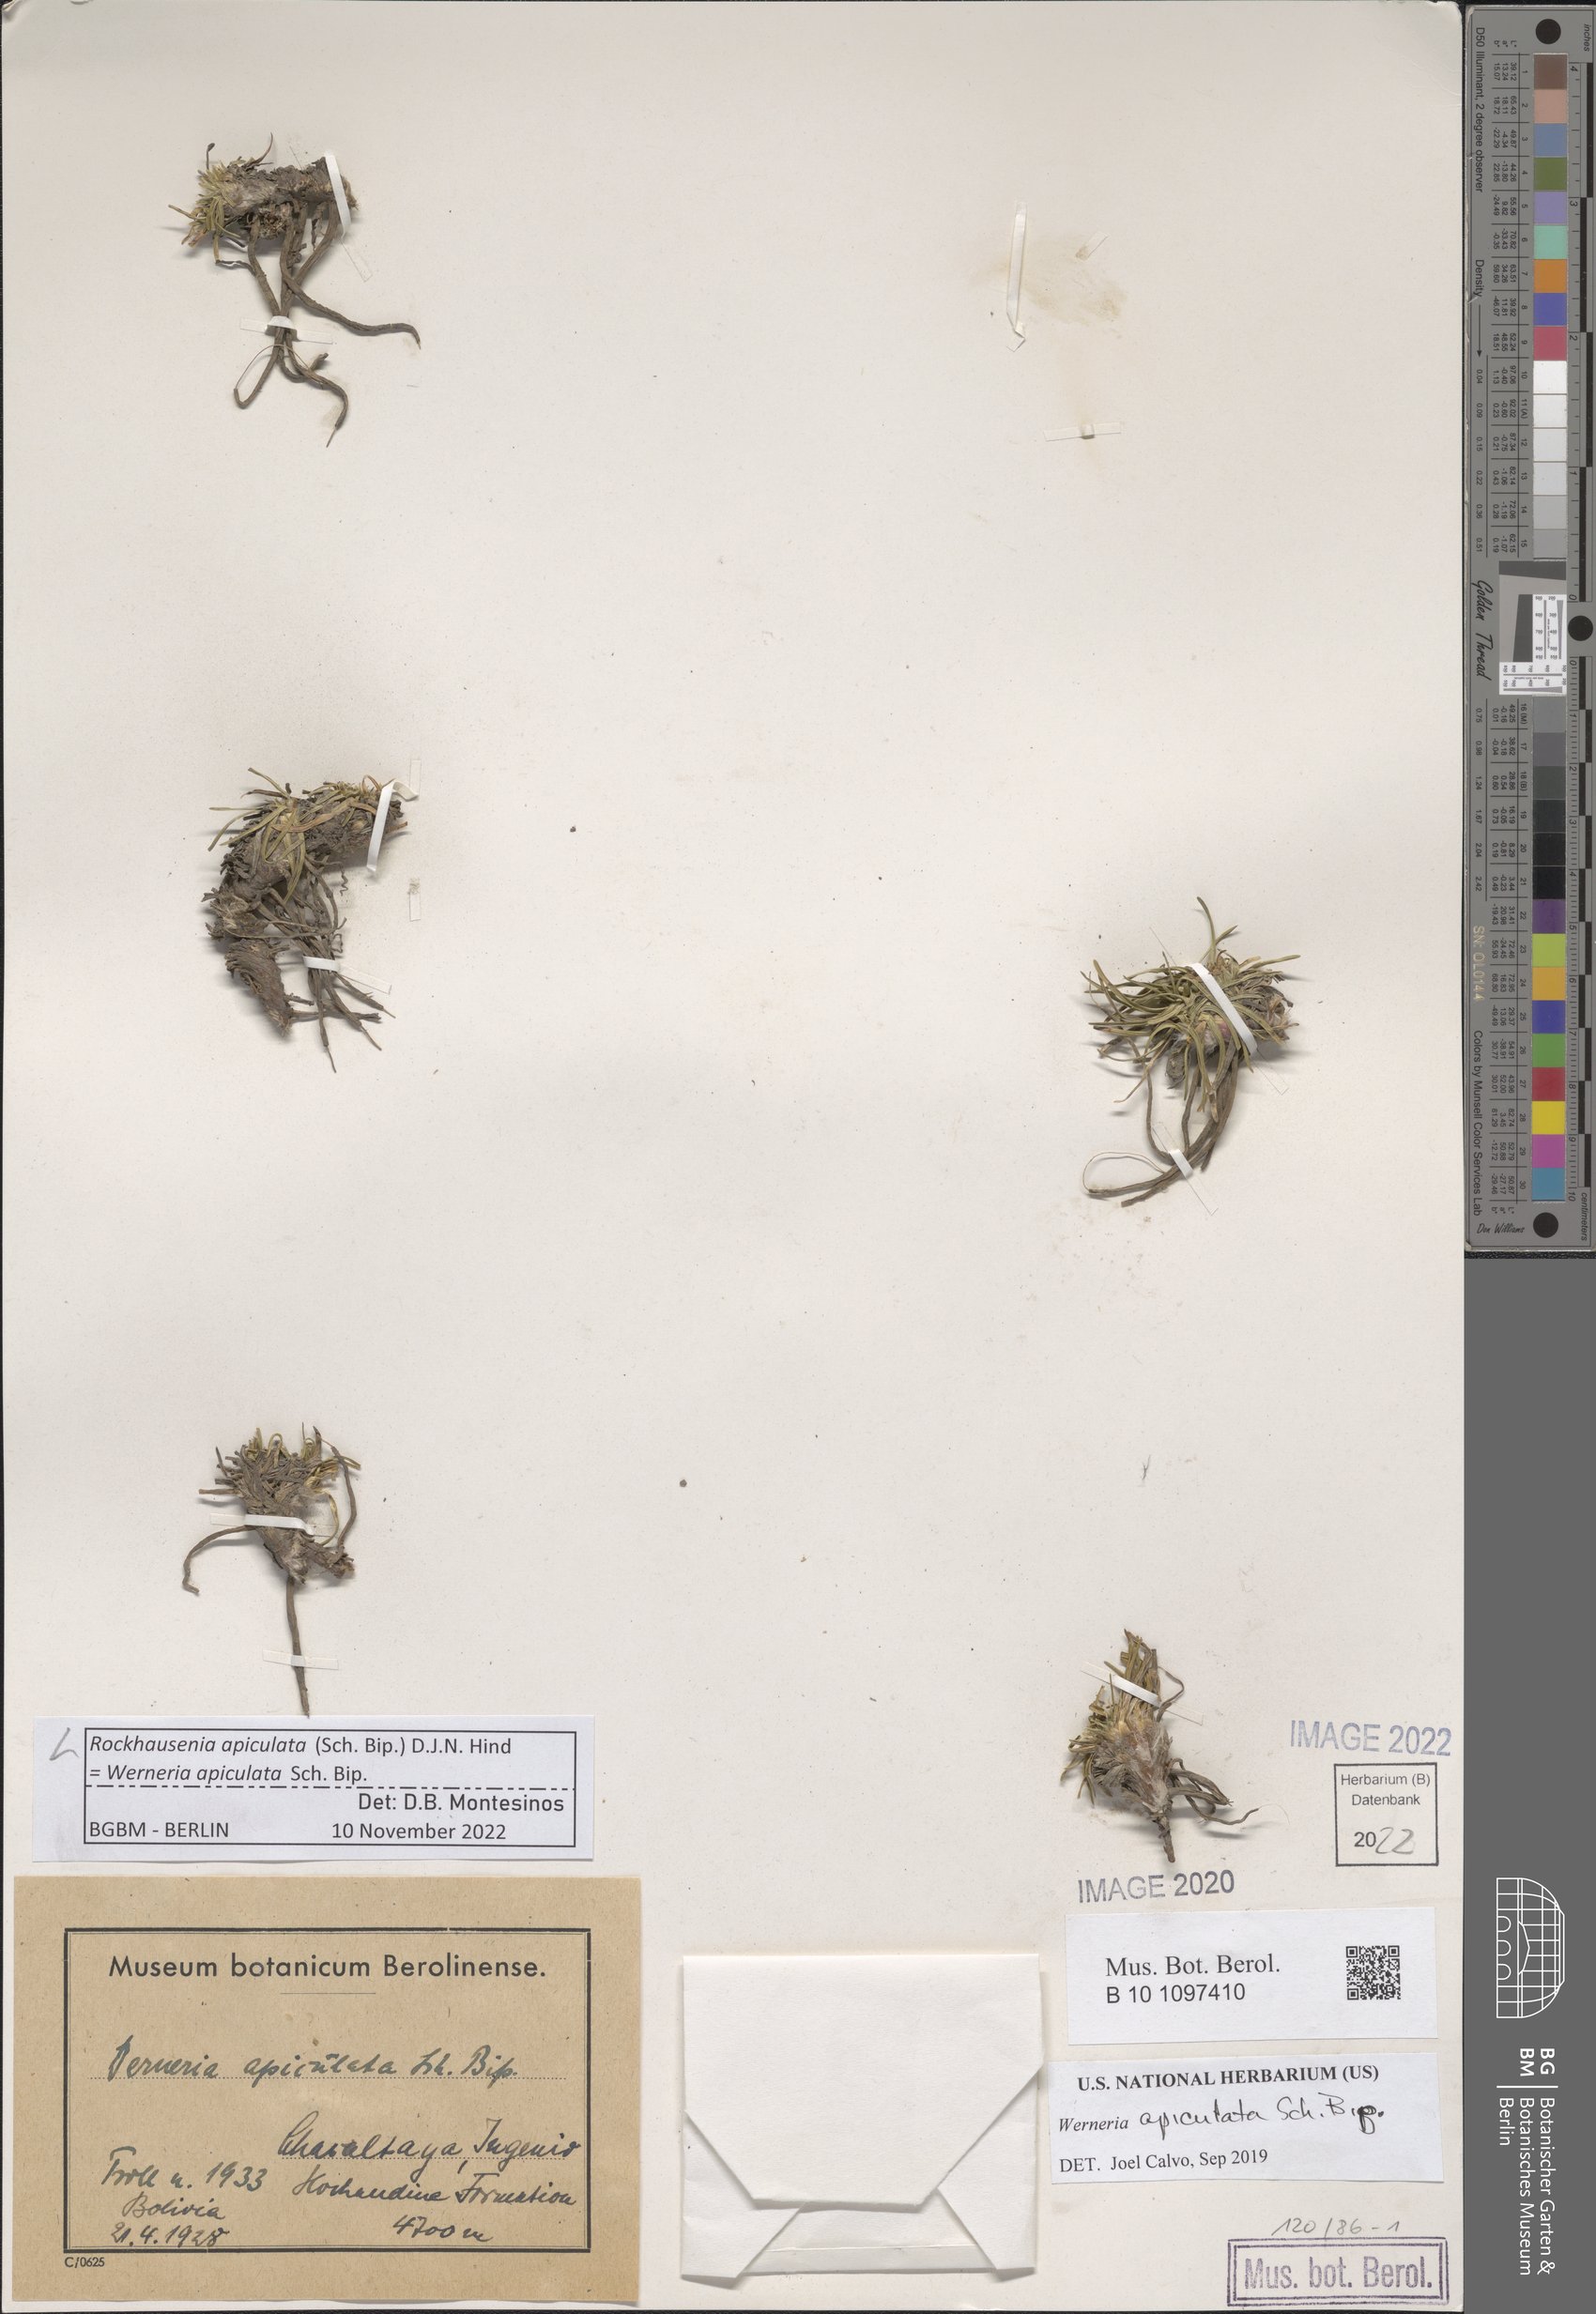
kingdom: Plantae
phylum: Tracheophyta
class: Magnoliopsida
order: Asterales
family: Asteraceae
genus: Rockhausenia
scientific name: Rockhausenia apiculata
